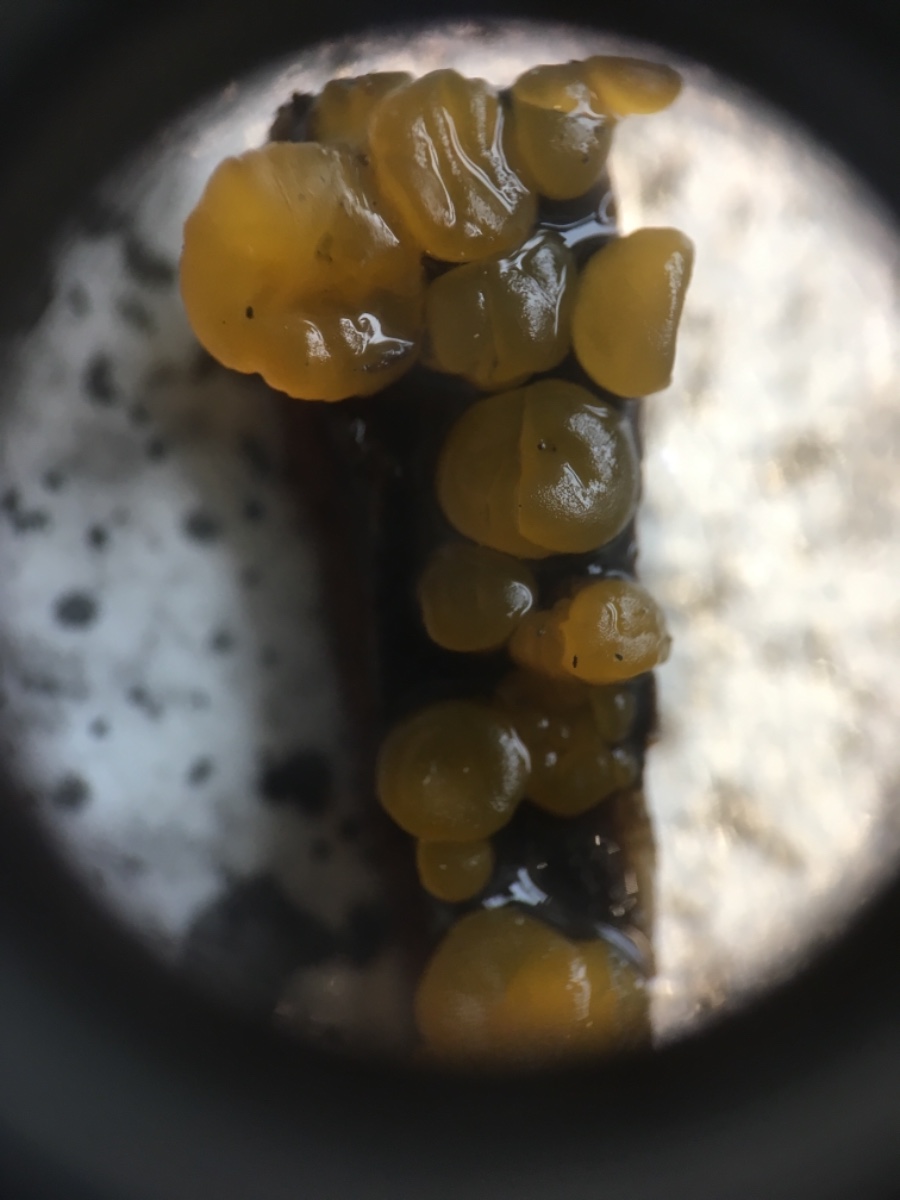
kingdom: Fungi
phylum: Basidiomycota
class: Dacrymycetes
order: Dacrymycetales
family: Dacrymycetaceae
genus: Dacrymyces
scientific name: Dacrymyces
